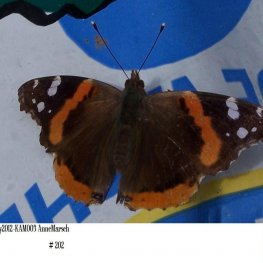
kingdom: Animalia
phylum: Arthropoda
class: Insecta
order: Lepidoptera
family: Nymphalidae
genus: Vanessa
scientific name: Vanessa atalanta
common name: Red Admiral
